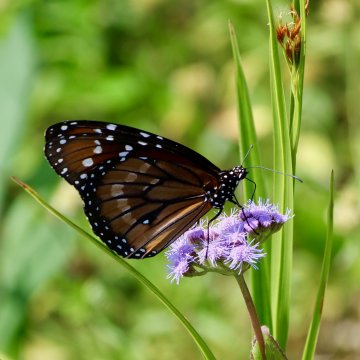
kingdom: Animalia
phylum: Arthropoda
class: Insecta
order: Lepidoptera
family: Nymphalidae
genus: Danaus
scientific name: Danaus eresimus
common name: Soldier
